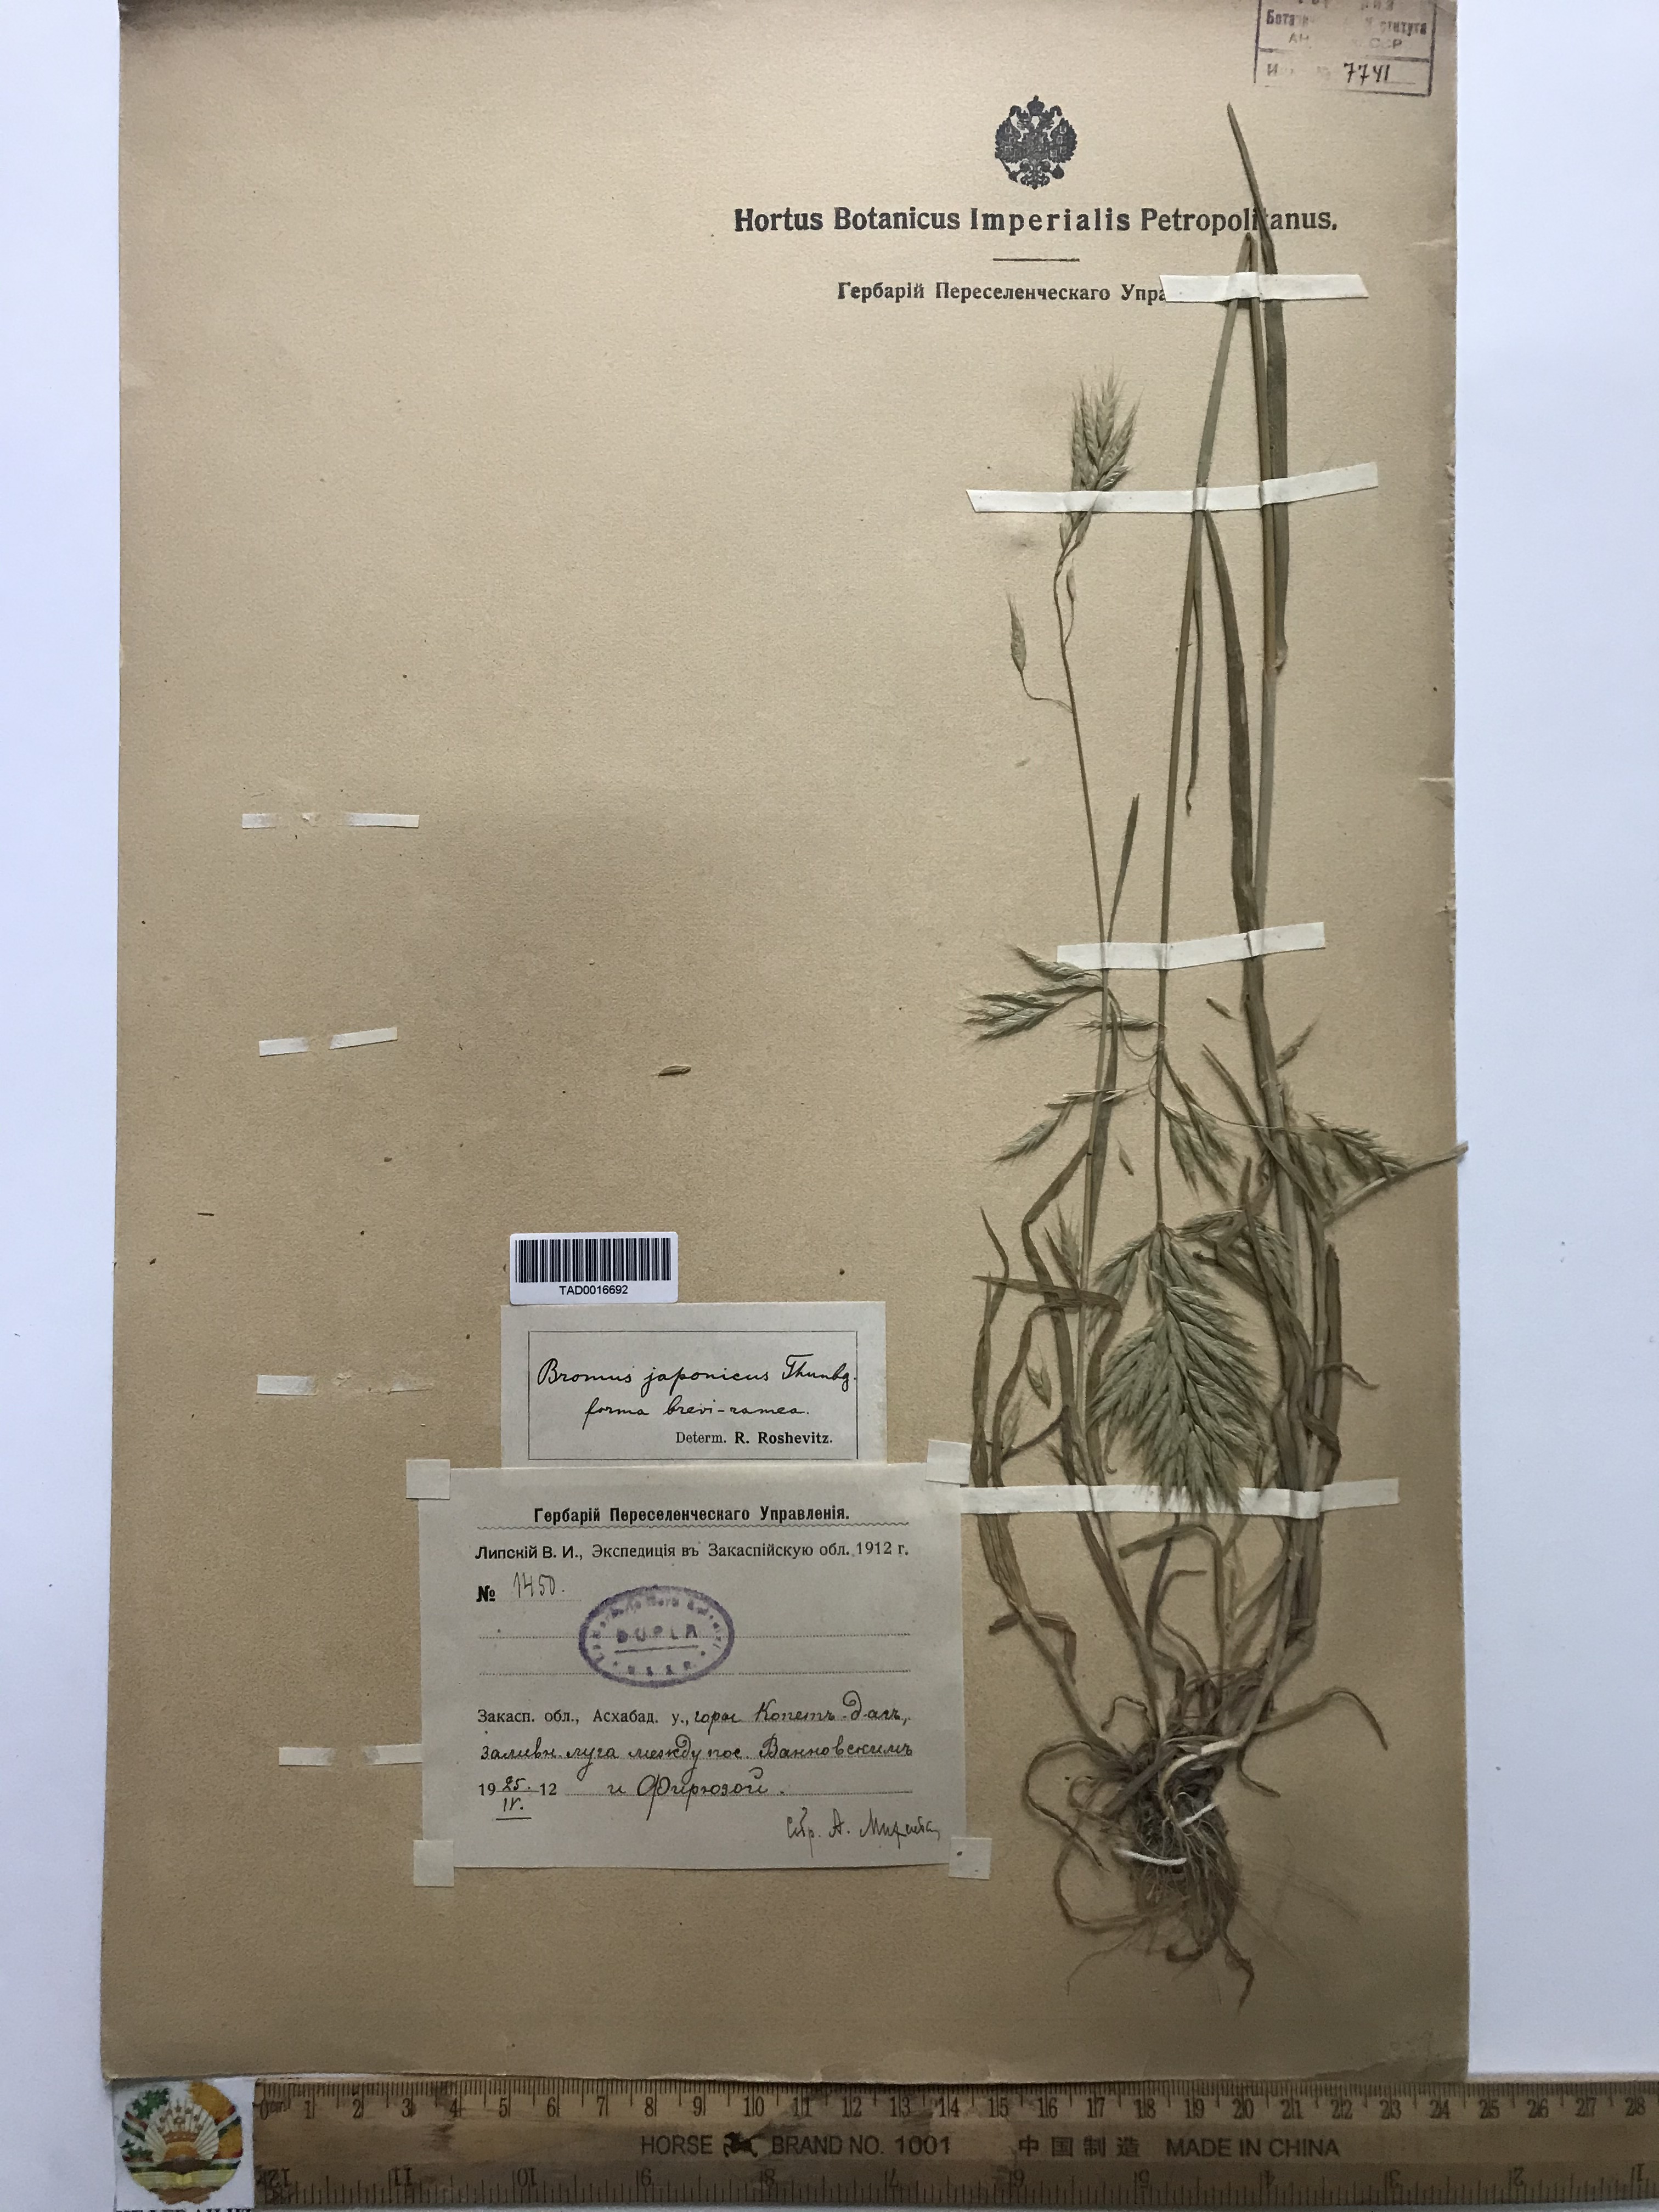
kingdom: Plantae
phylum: Tracheophyta
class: Liliopsida
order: Poales
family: Poaceae
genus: Bromus
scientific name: Bromus japonicus
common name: Japanese brome
